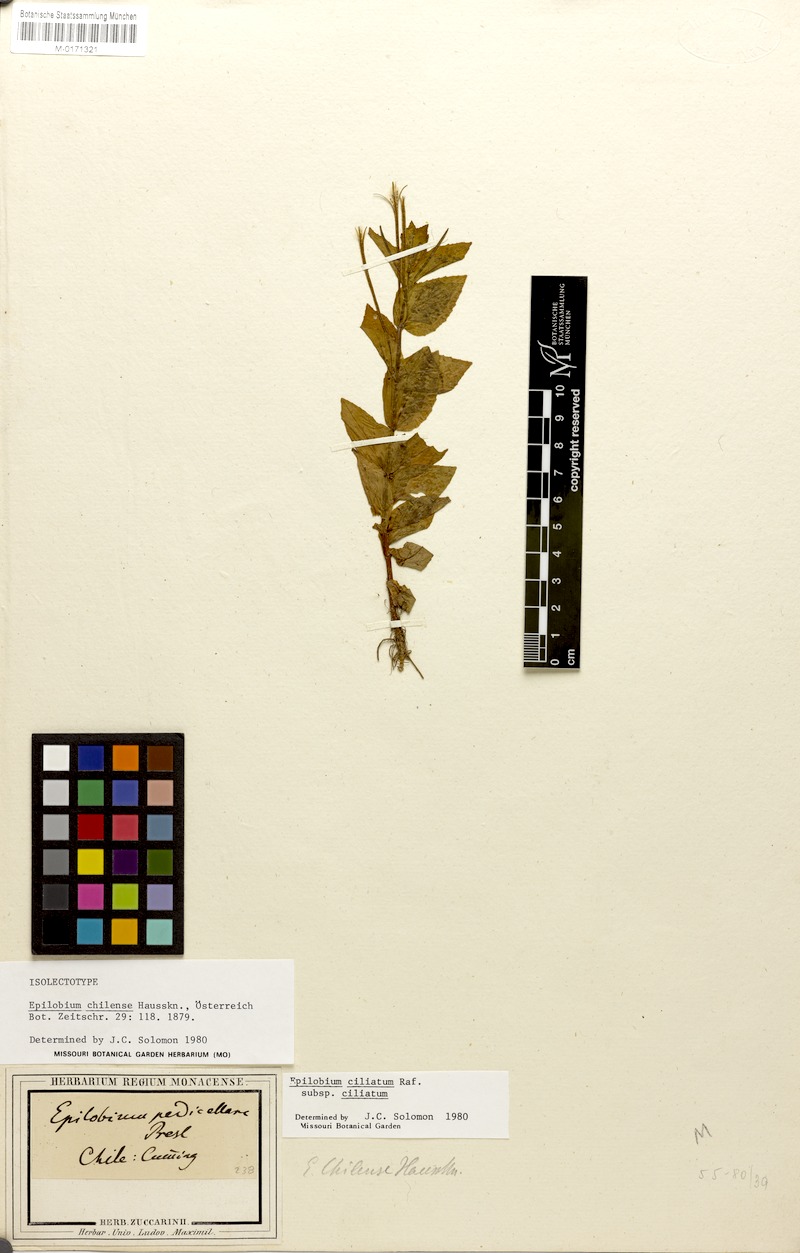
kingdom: Plantae
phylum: Tracheophyta
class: Magnoliopsida
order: Myrtales
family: Onagraceae
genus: Epilobium
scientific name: Epilobium ciliatum
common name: American willowherb
